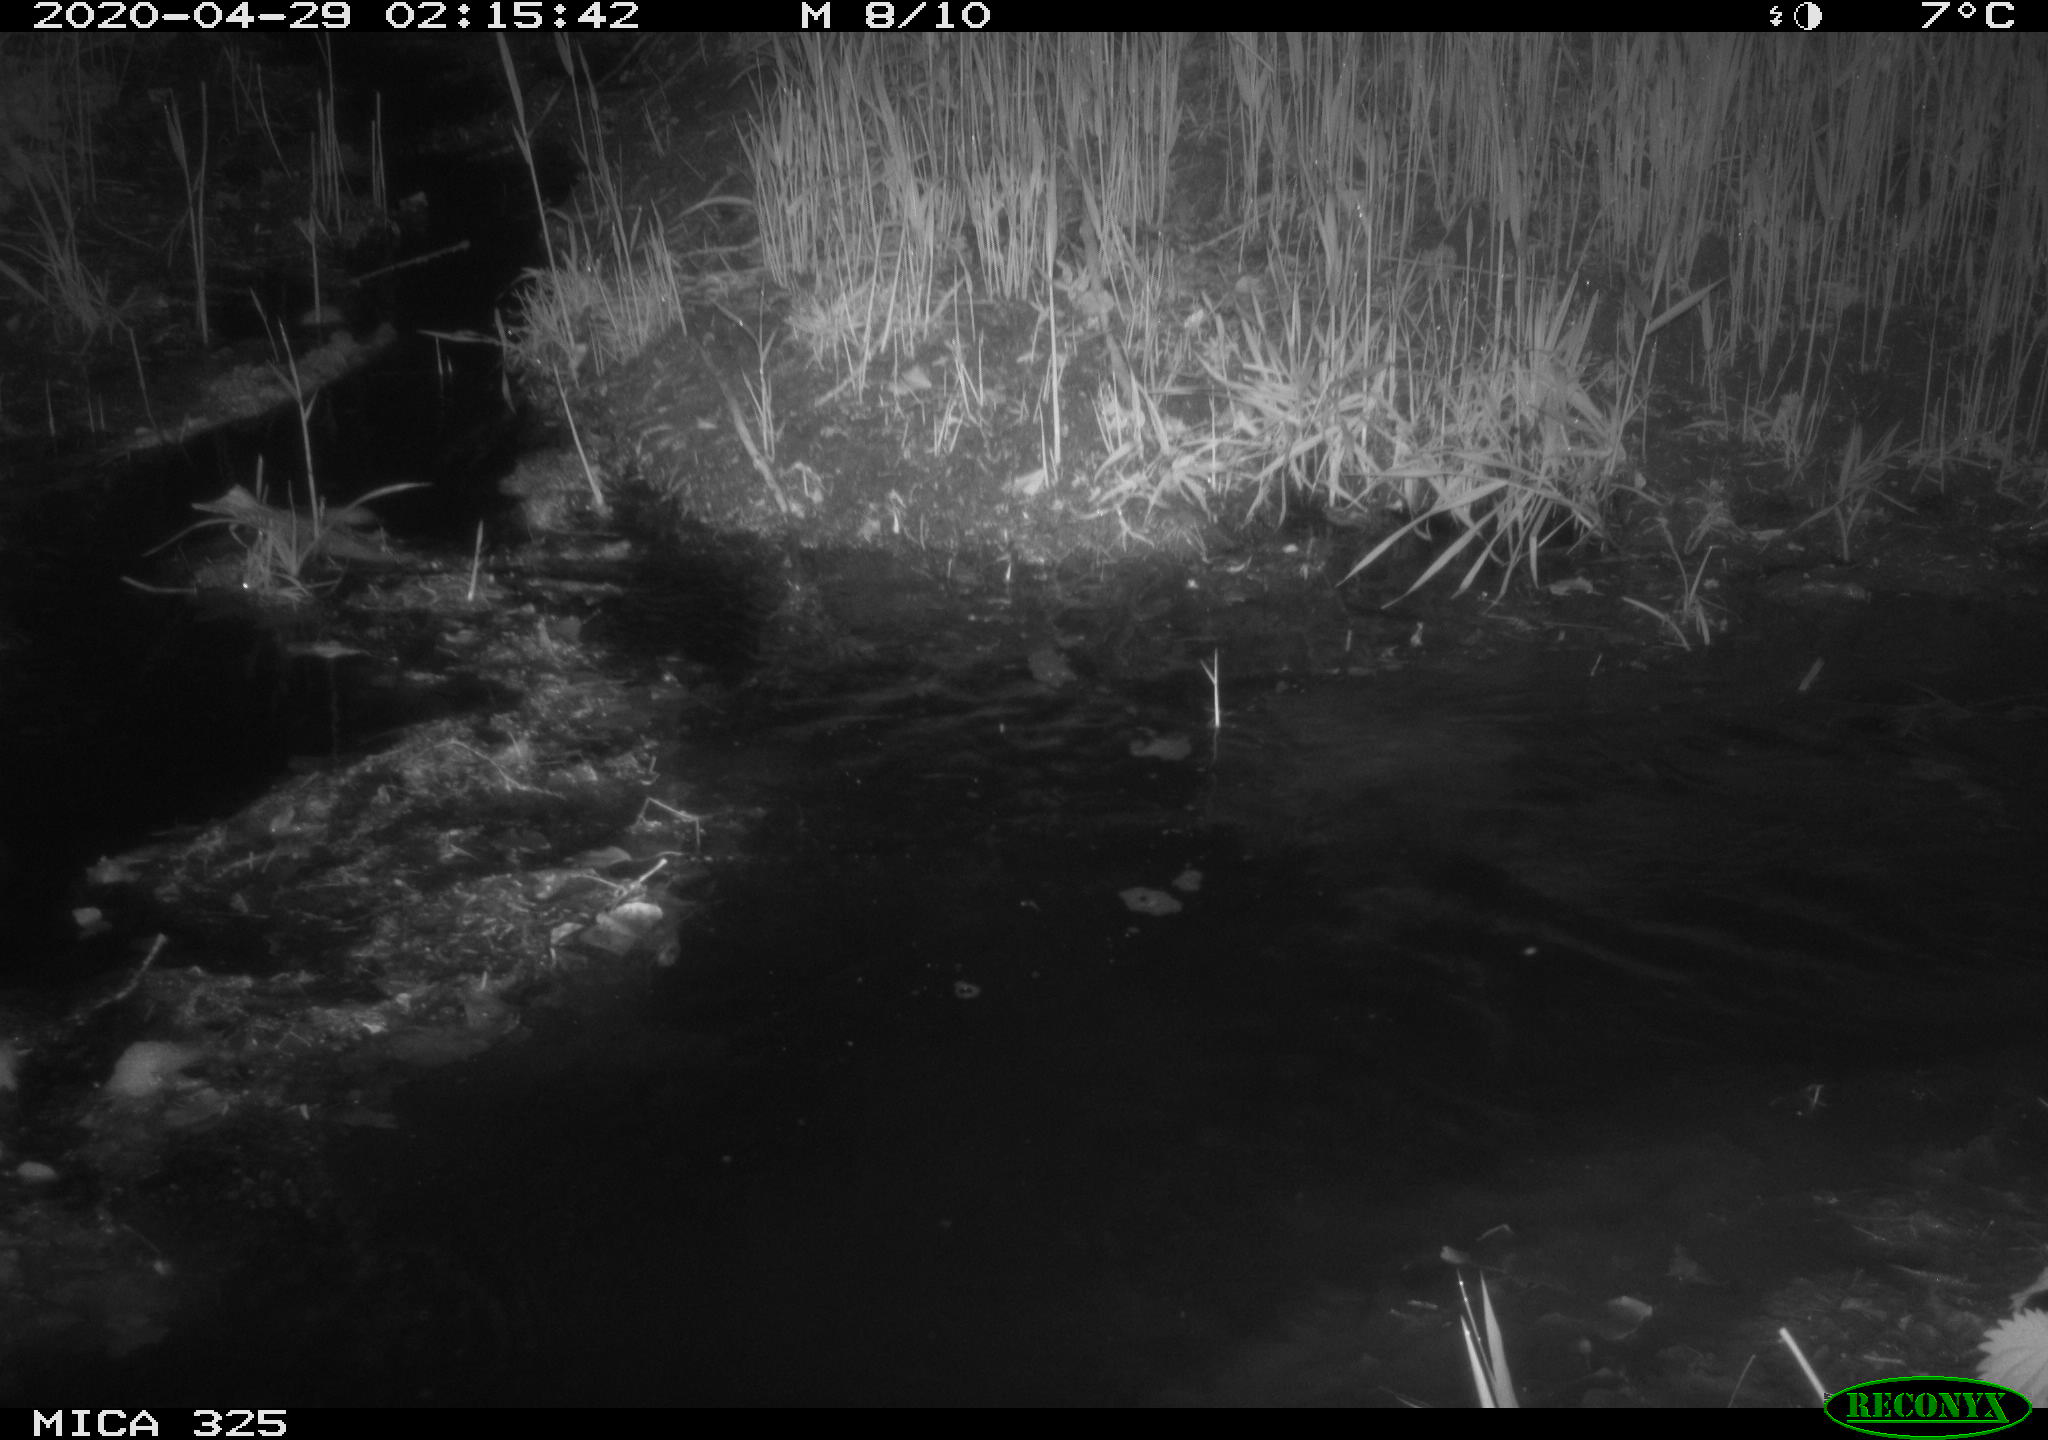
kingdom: Animalia
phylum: Chordata
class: Mammalia
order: Rodentia
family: Myocastoridae
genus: Myocastor
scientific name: Myocastor coypus
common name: Coypu
